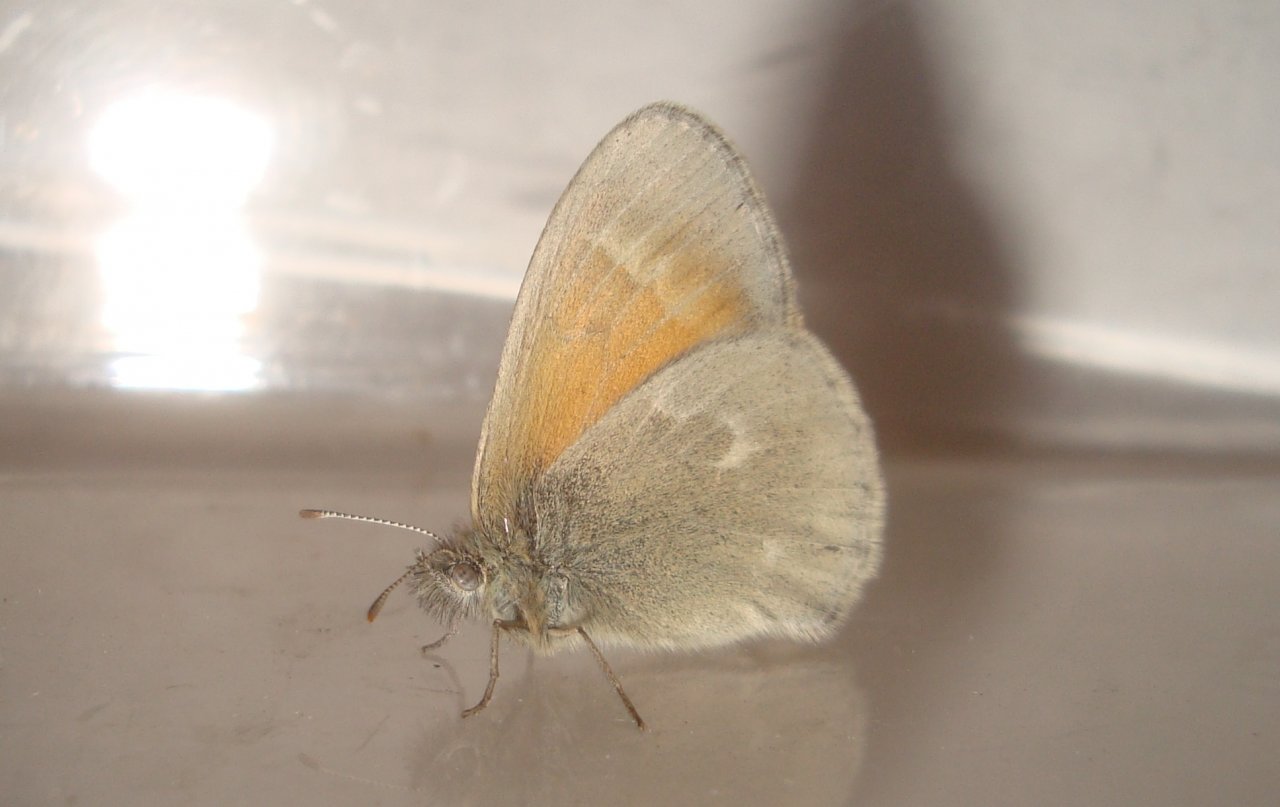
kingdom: Animalia
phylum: Arthropoda
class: Insecta
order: Lepidoptera
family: Nymphalidae
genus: Coenonympha
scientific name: Coenonympha tullia
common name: Large Heath
